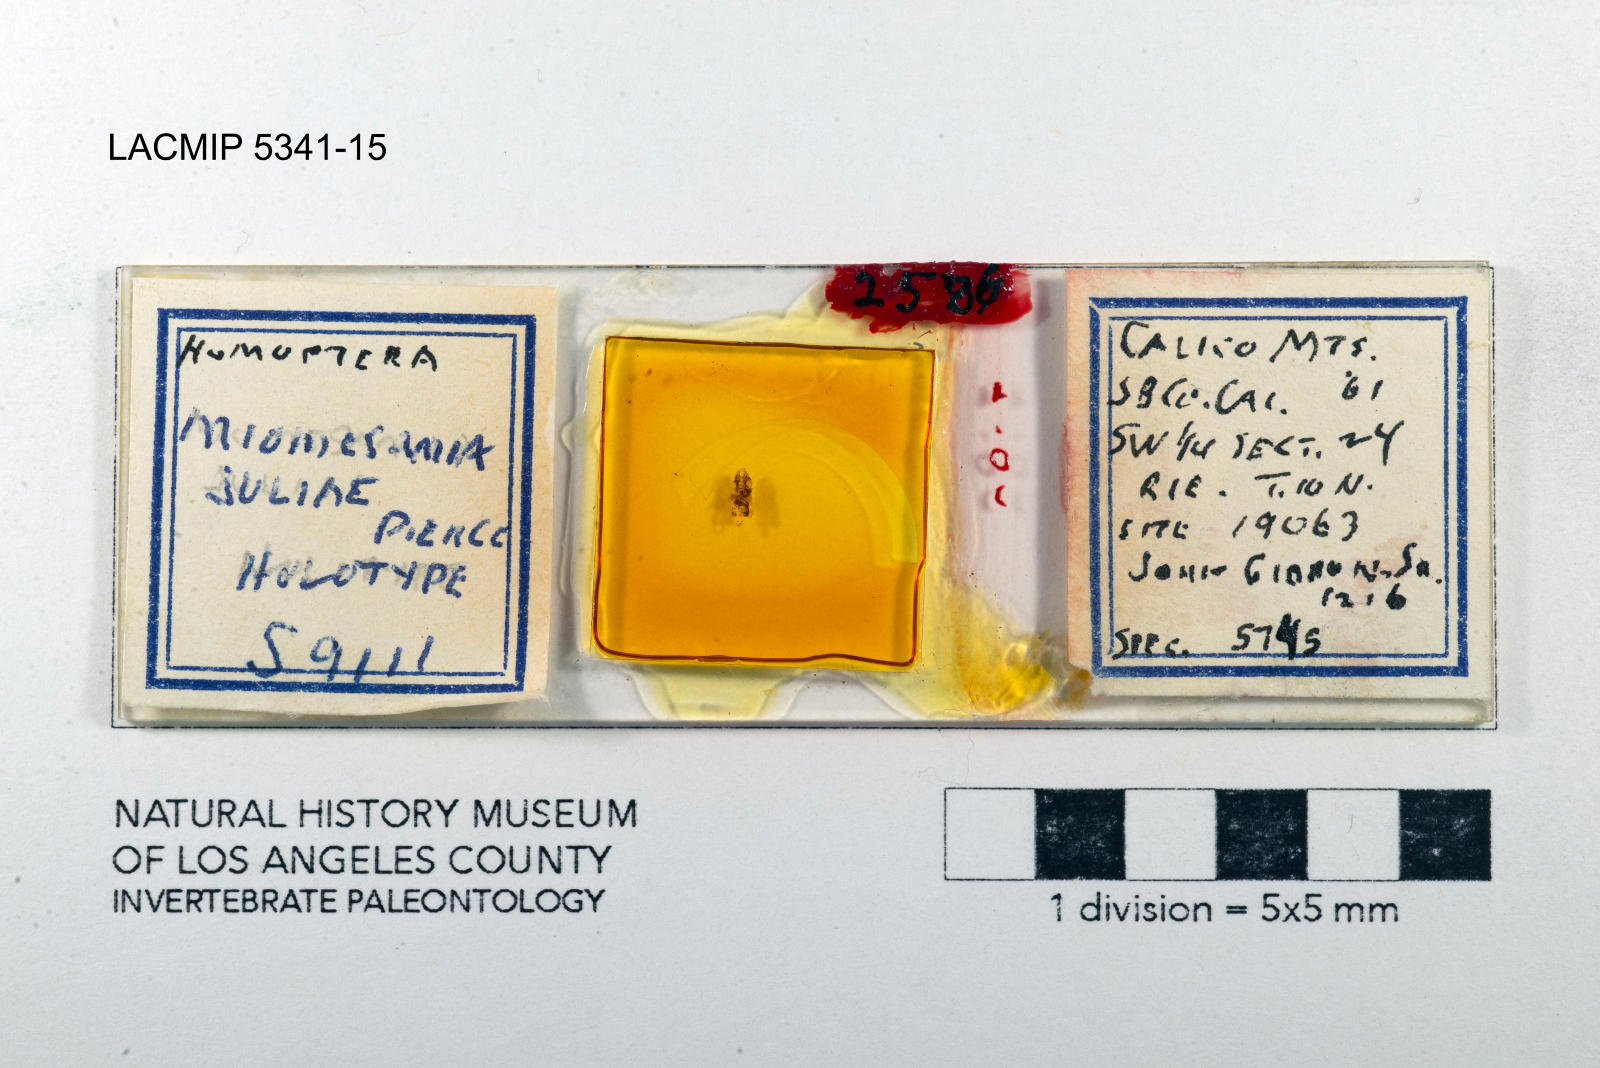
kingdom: Animalia
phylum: Arthropoda
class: Insecta
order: Hemiptera
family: Cicadellidae
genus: Miomesamia
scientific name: Miomesamia juliae
